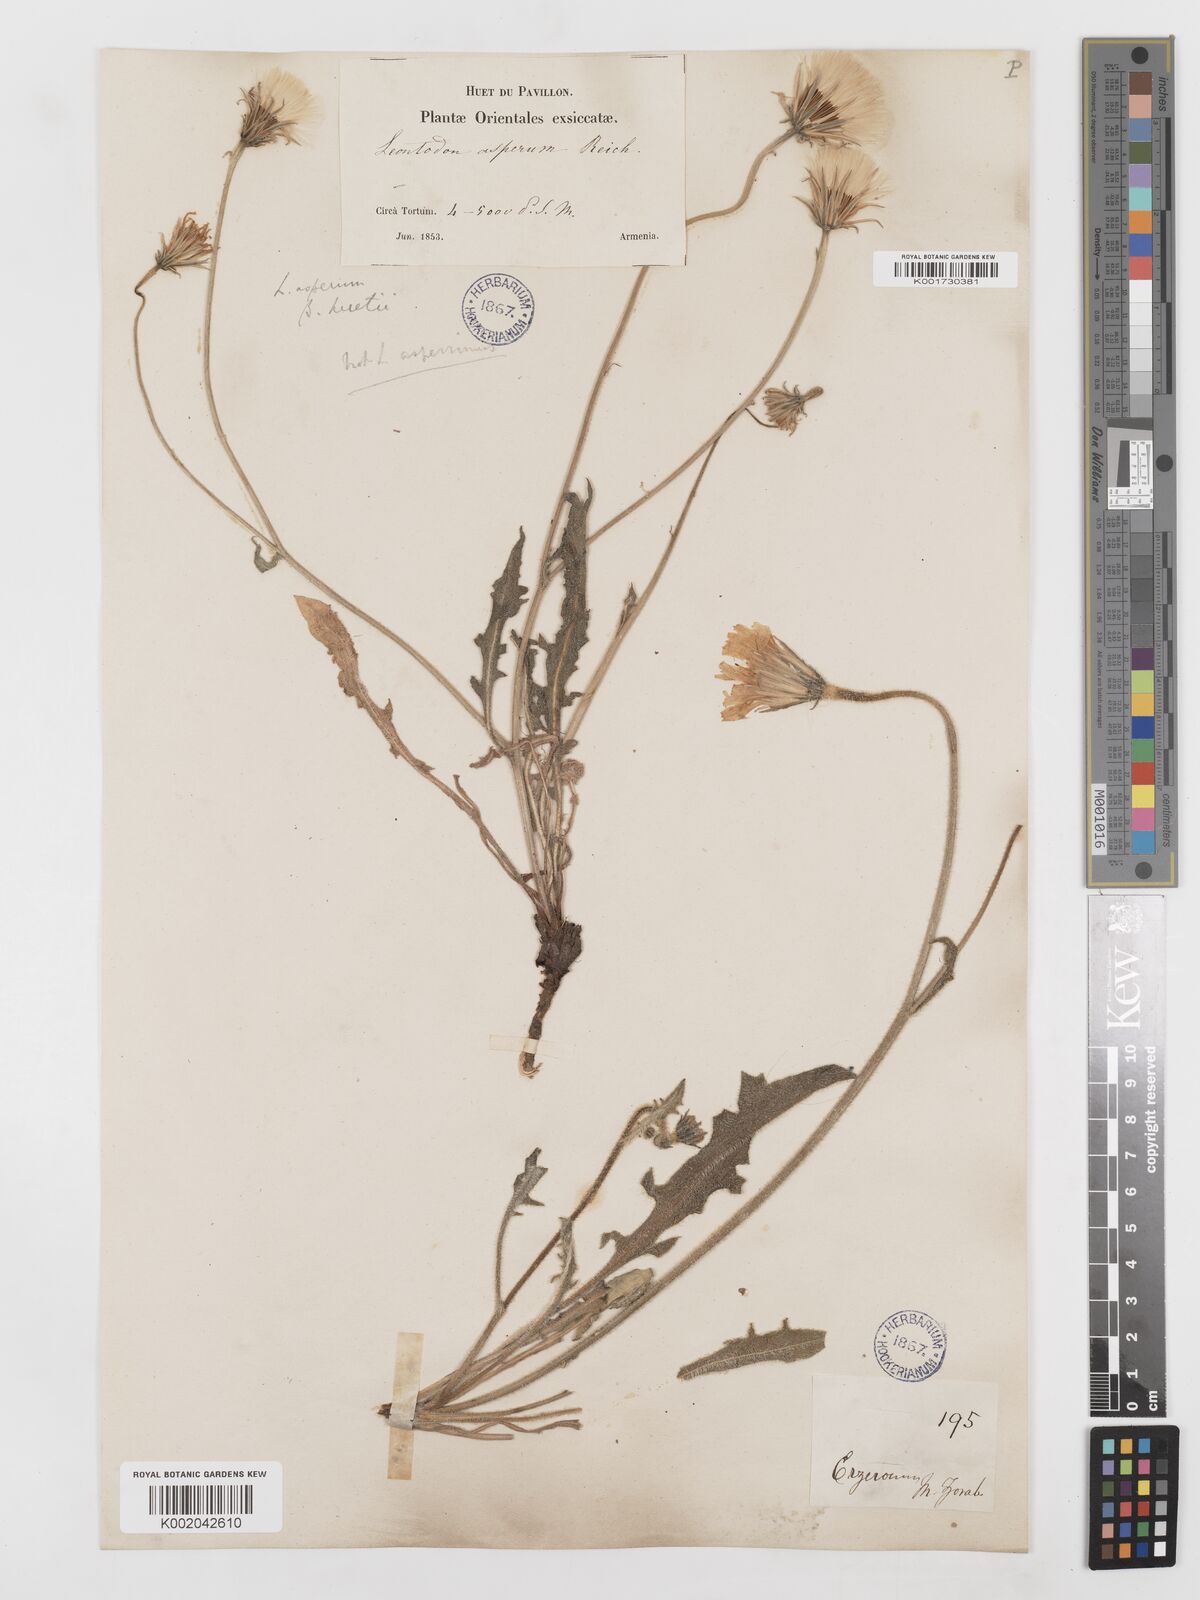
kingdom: Plantae
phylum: Tracheophyta
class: Magnoliopsida
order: Asterales
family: Asteraceae
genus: Leontodon
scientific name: Leontodon
